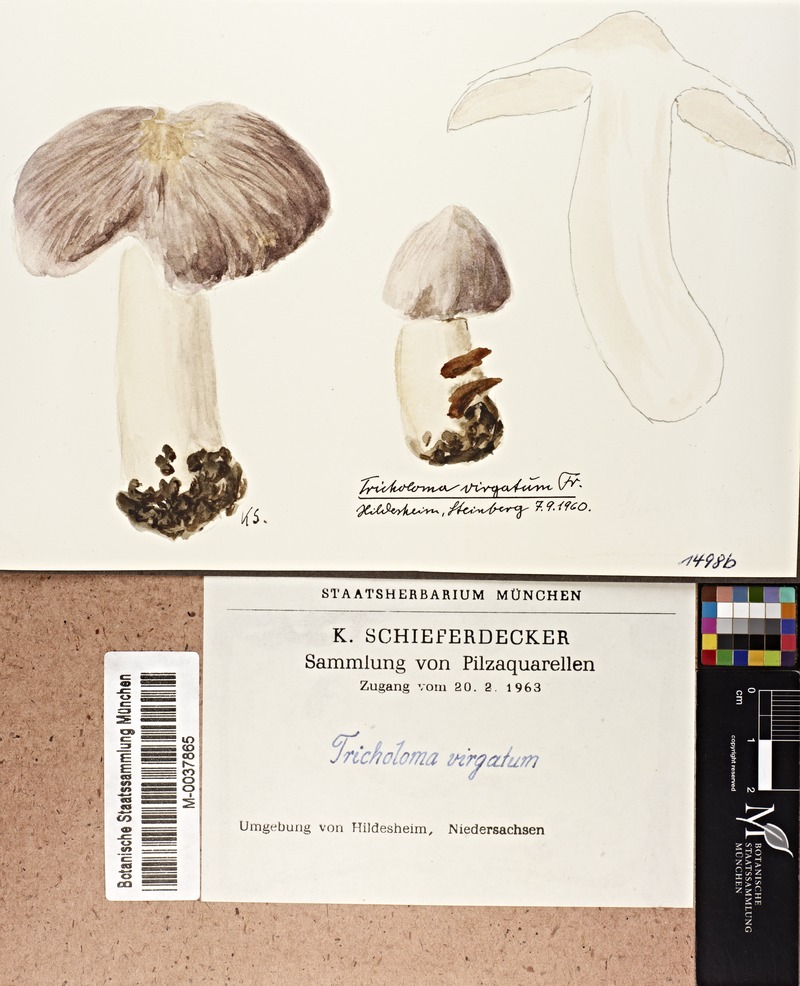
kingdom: Fungi
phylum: Basidiomycota
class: Agaricomycetes
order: Agaricales
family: Tricholomataceae
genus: Tricholoma
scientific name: Tricholoma virgatum
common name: Ashen knight
